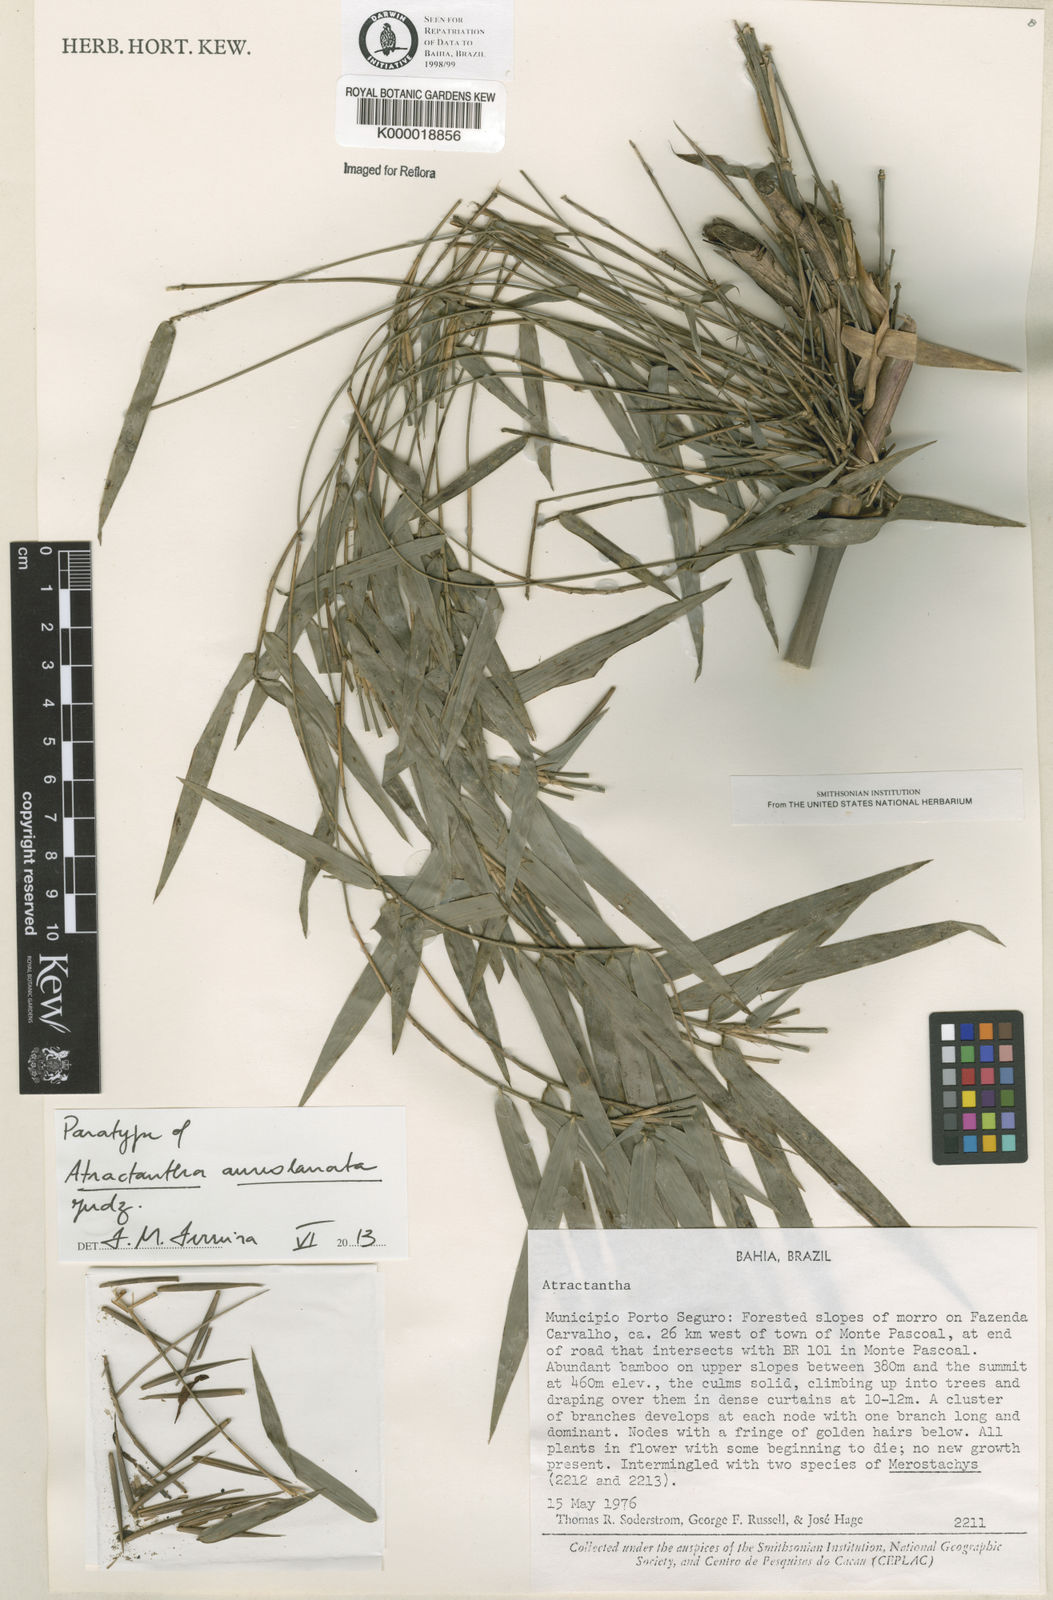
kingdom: Plantae
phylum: Tracheophyta
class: Liliopsida
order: Poales
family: Poaceae
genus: Atractantha
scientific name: Atractantha aureolanata
